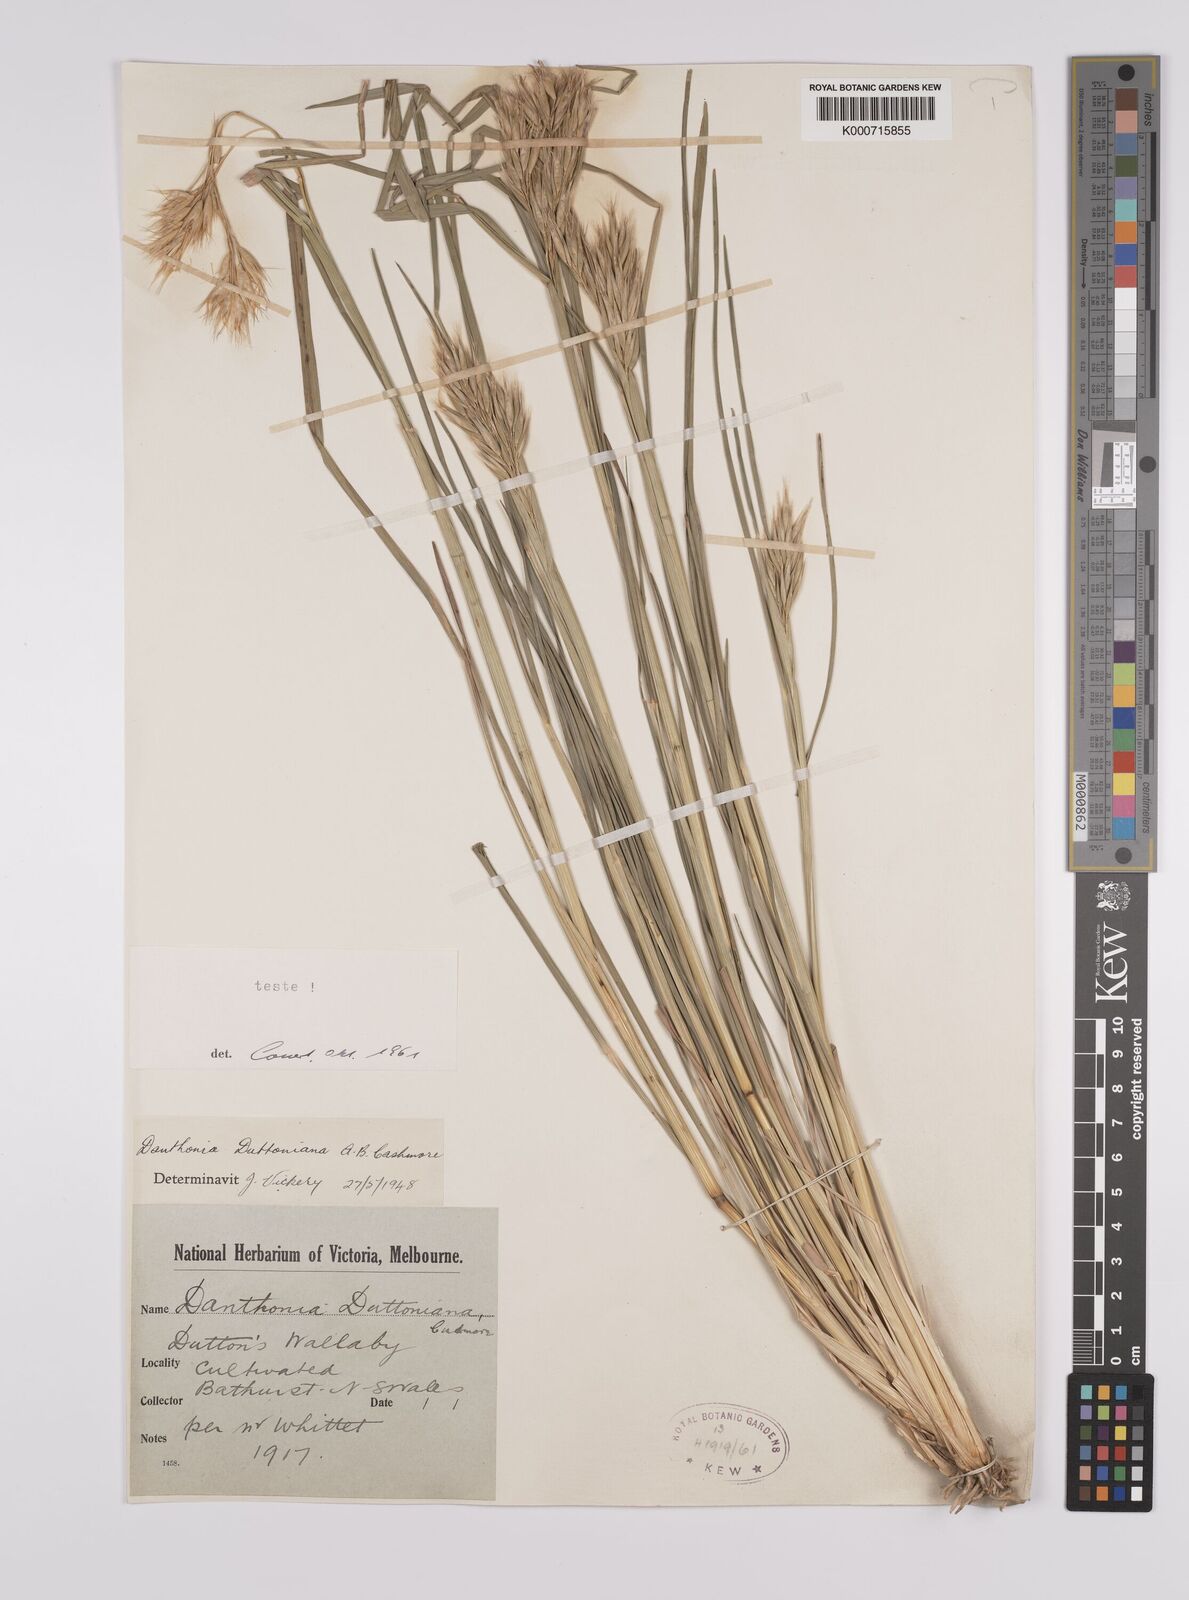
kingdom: Plantae
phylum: Tracheophyta
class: Liliopsida
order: Poales
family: Poaceae
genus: Rytidosperma
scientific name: Rytidosperma duttonianum
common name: Brown-black wallaby grass
